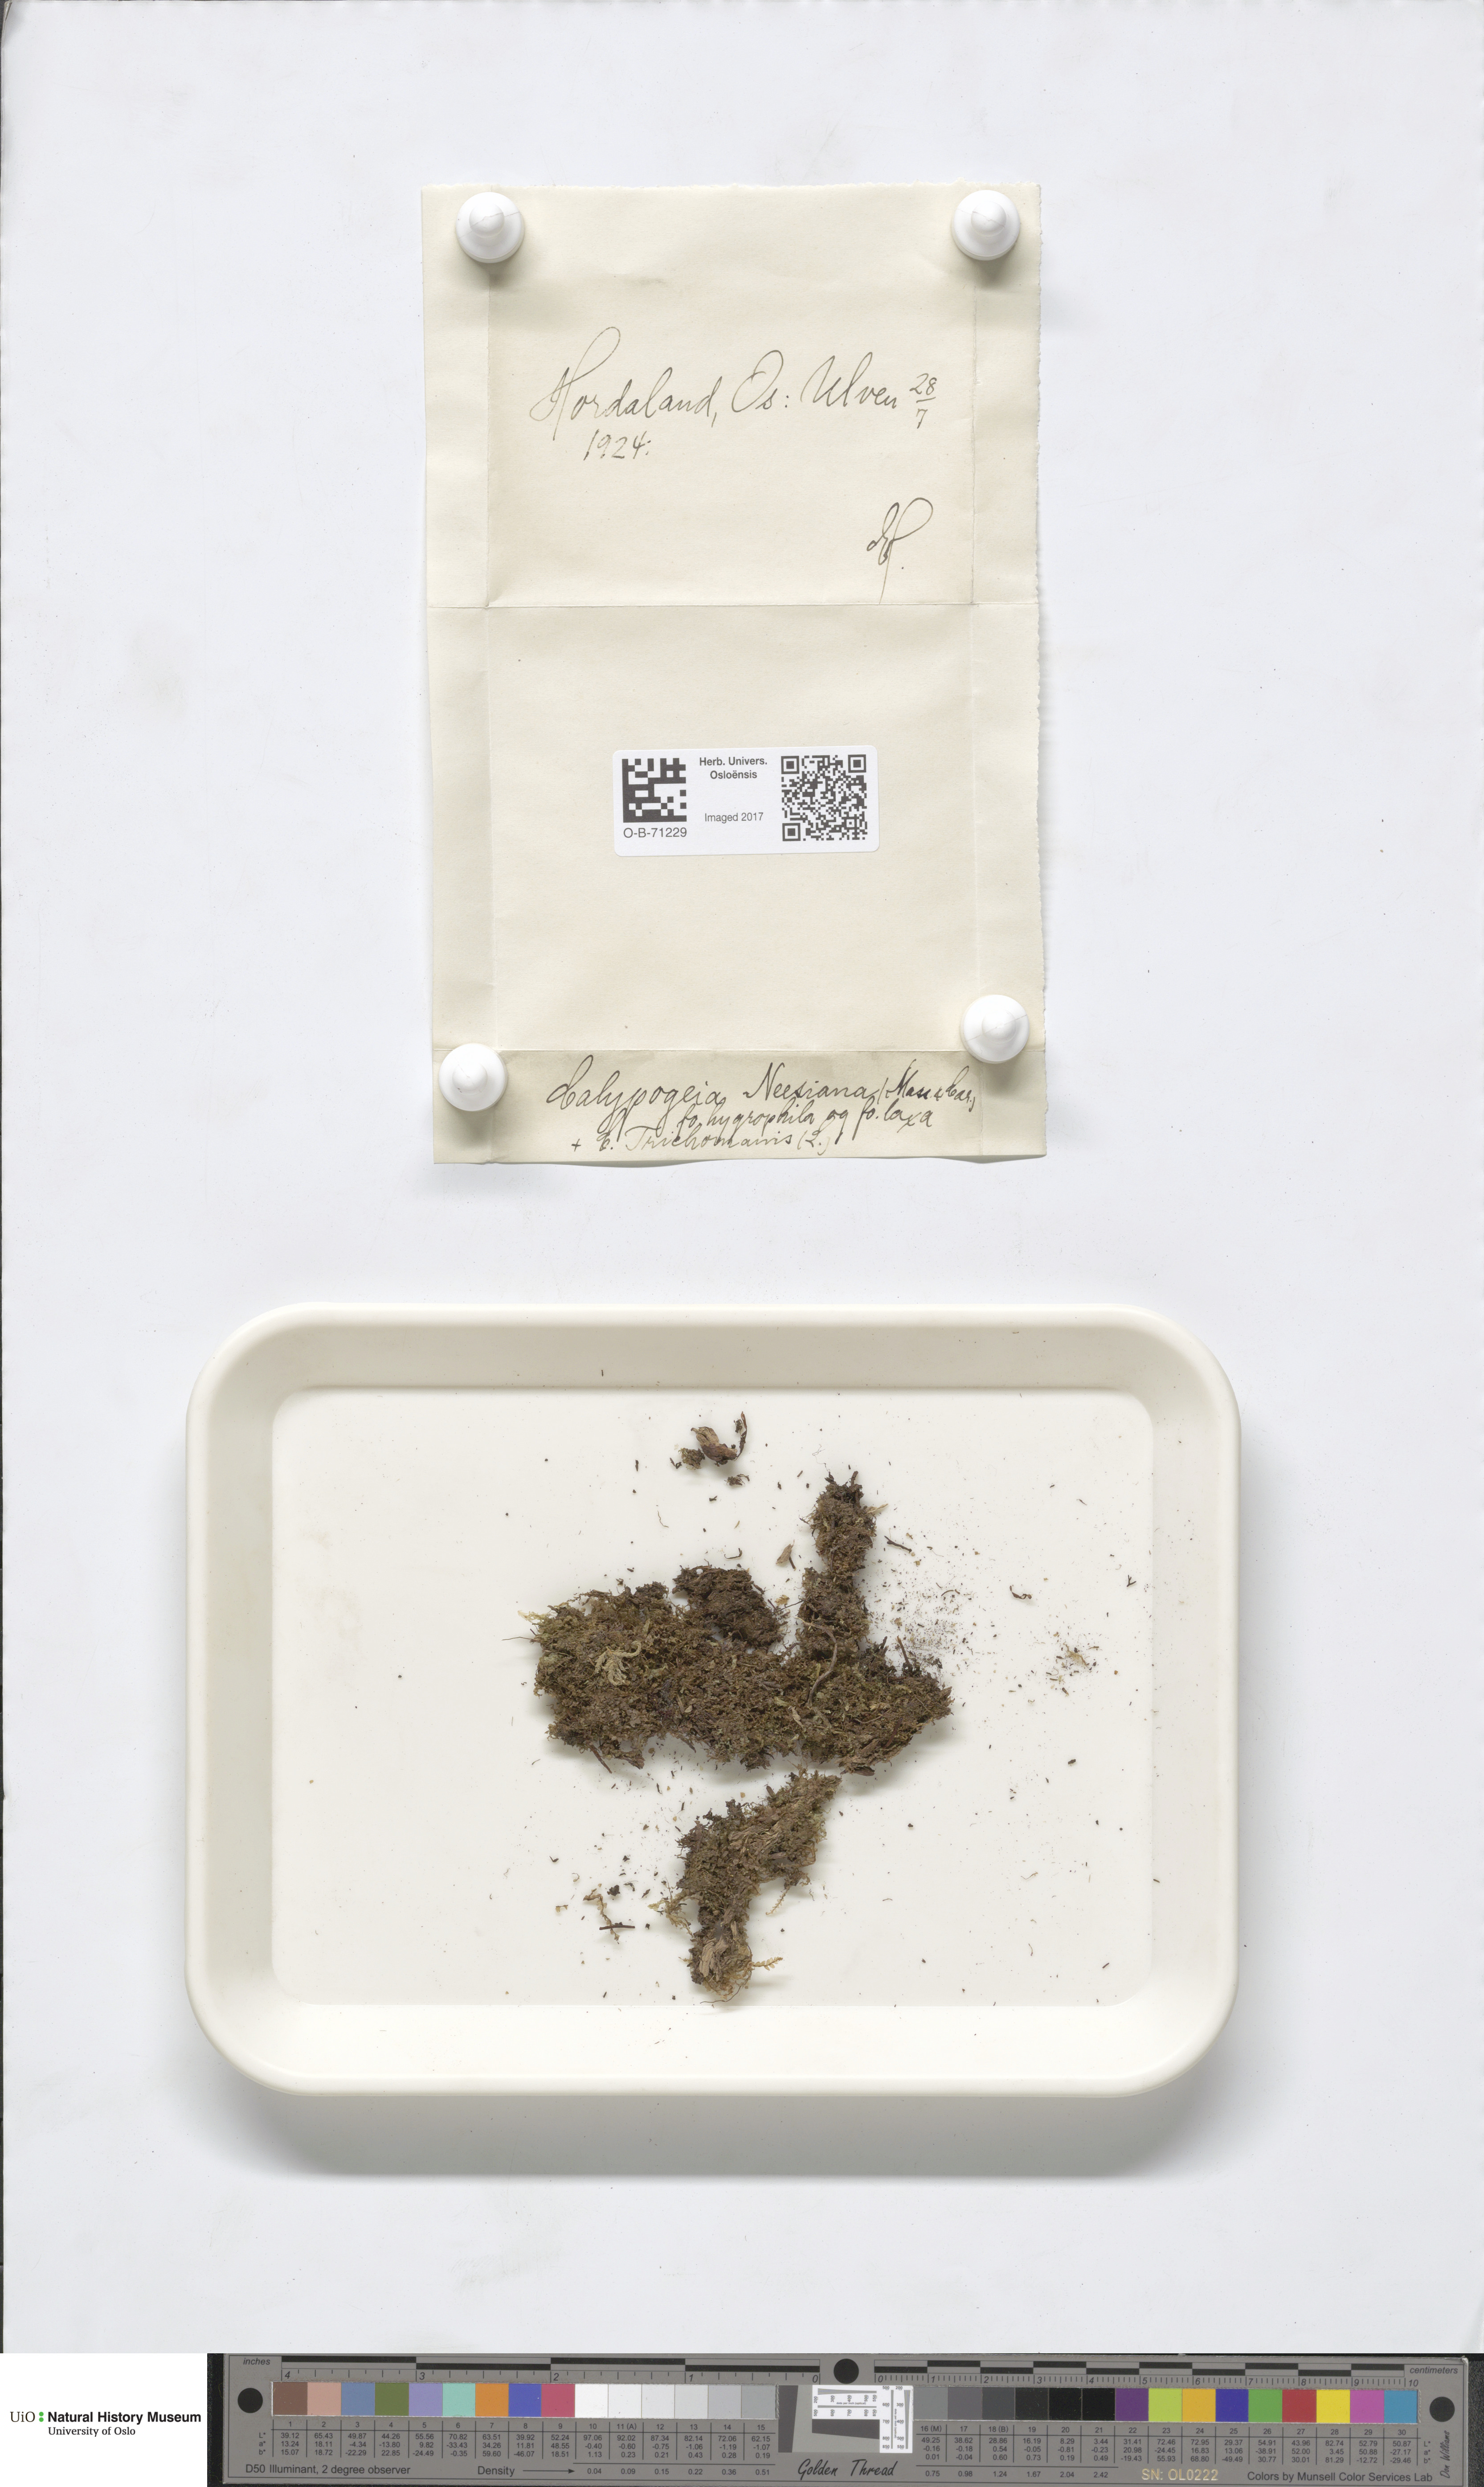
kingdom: Plantae
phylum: Marchantiophyta
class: Jungermanniopsida
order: Jungermanniales
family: Calypogeiaceae
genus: Calypogeia
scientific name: Calypogeia neesiana
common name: Nees  pouchwort
